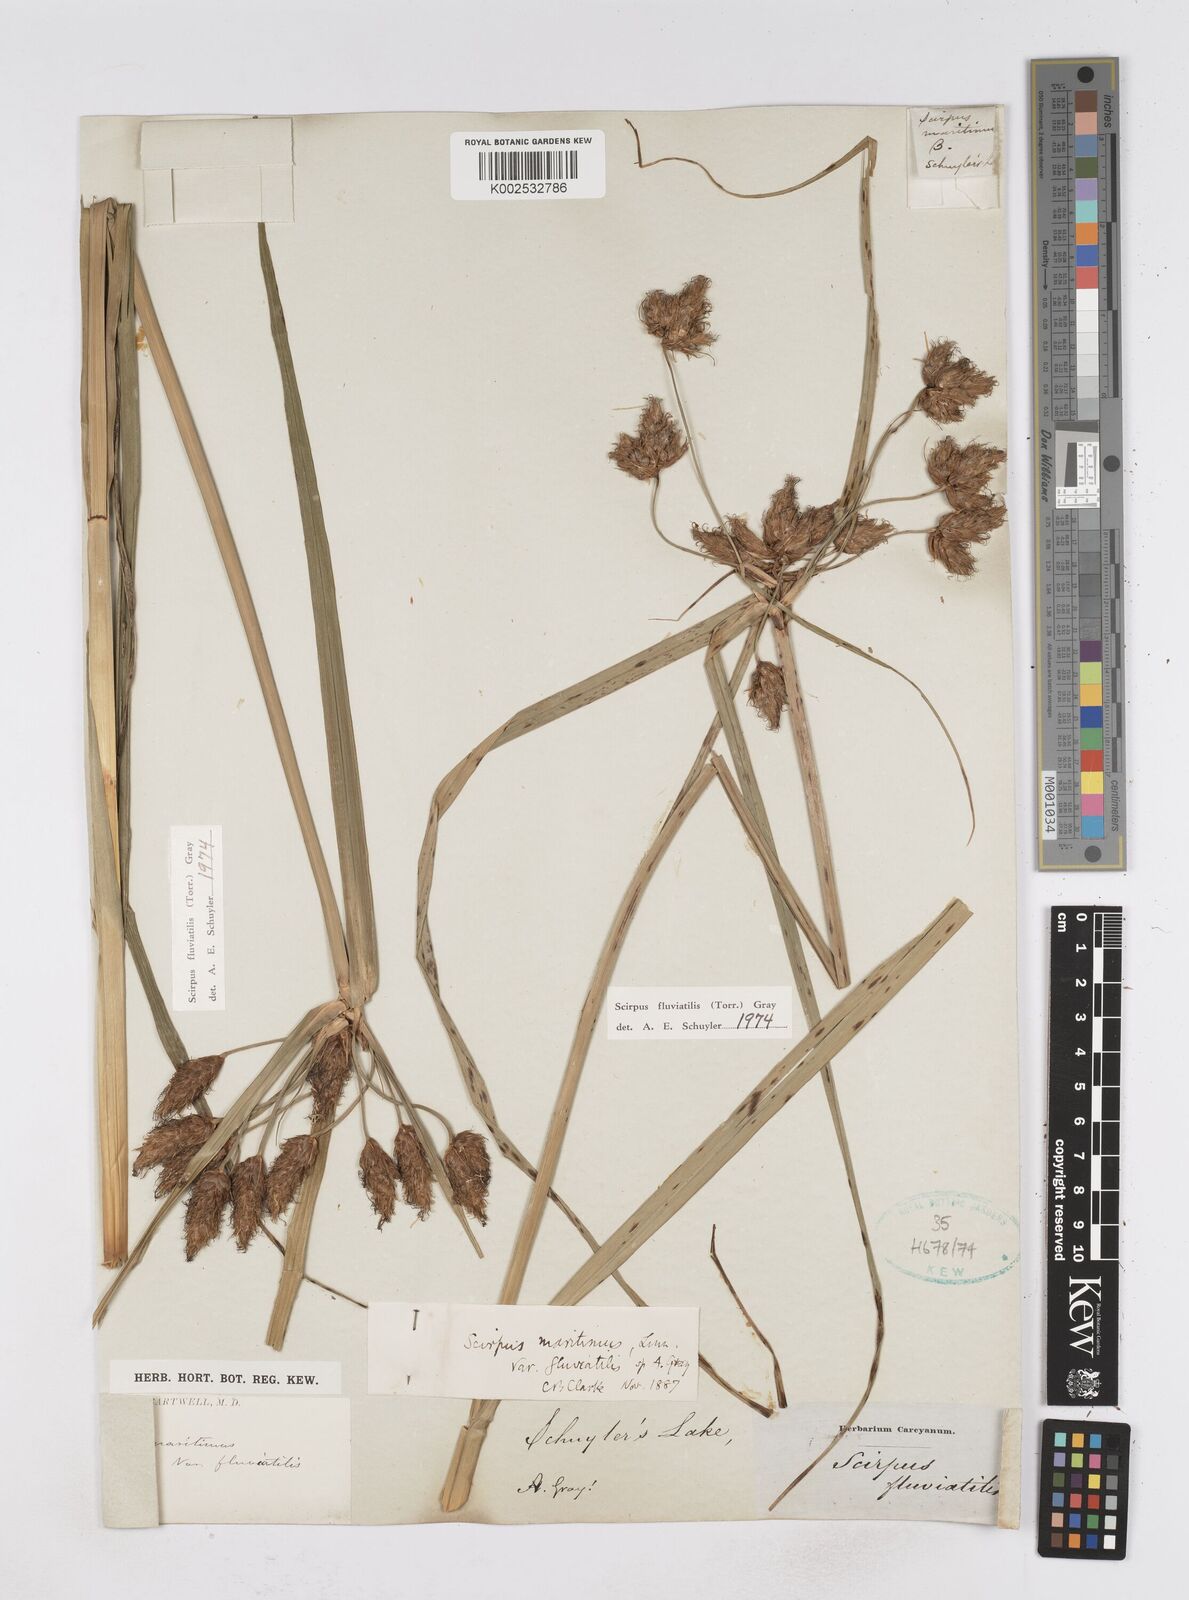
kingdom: Plantae
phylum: Tracheophyta
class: Liliopsida
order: Poales
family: Cyperaceae
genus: Bolboschoenus
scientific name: Bolboschoenus
